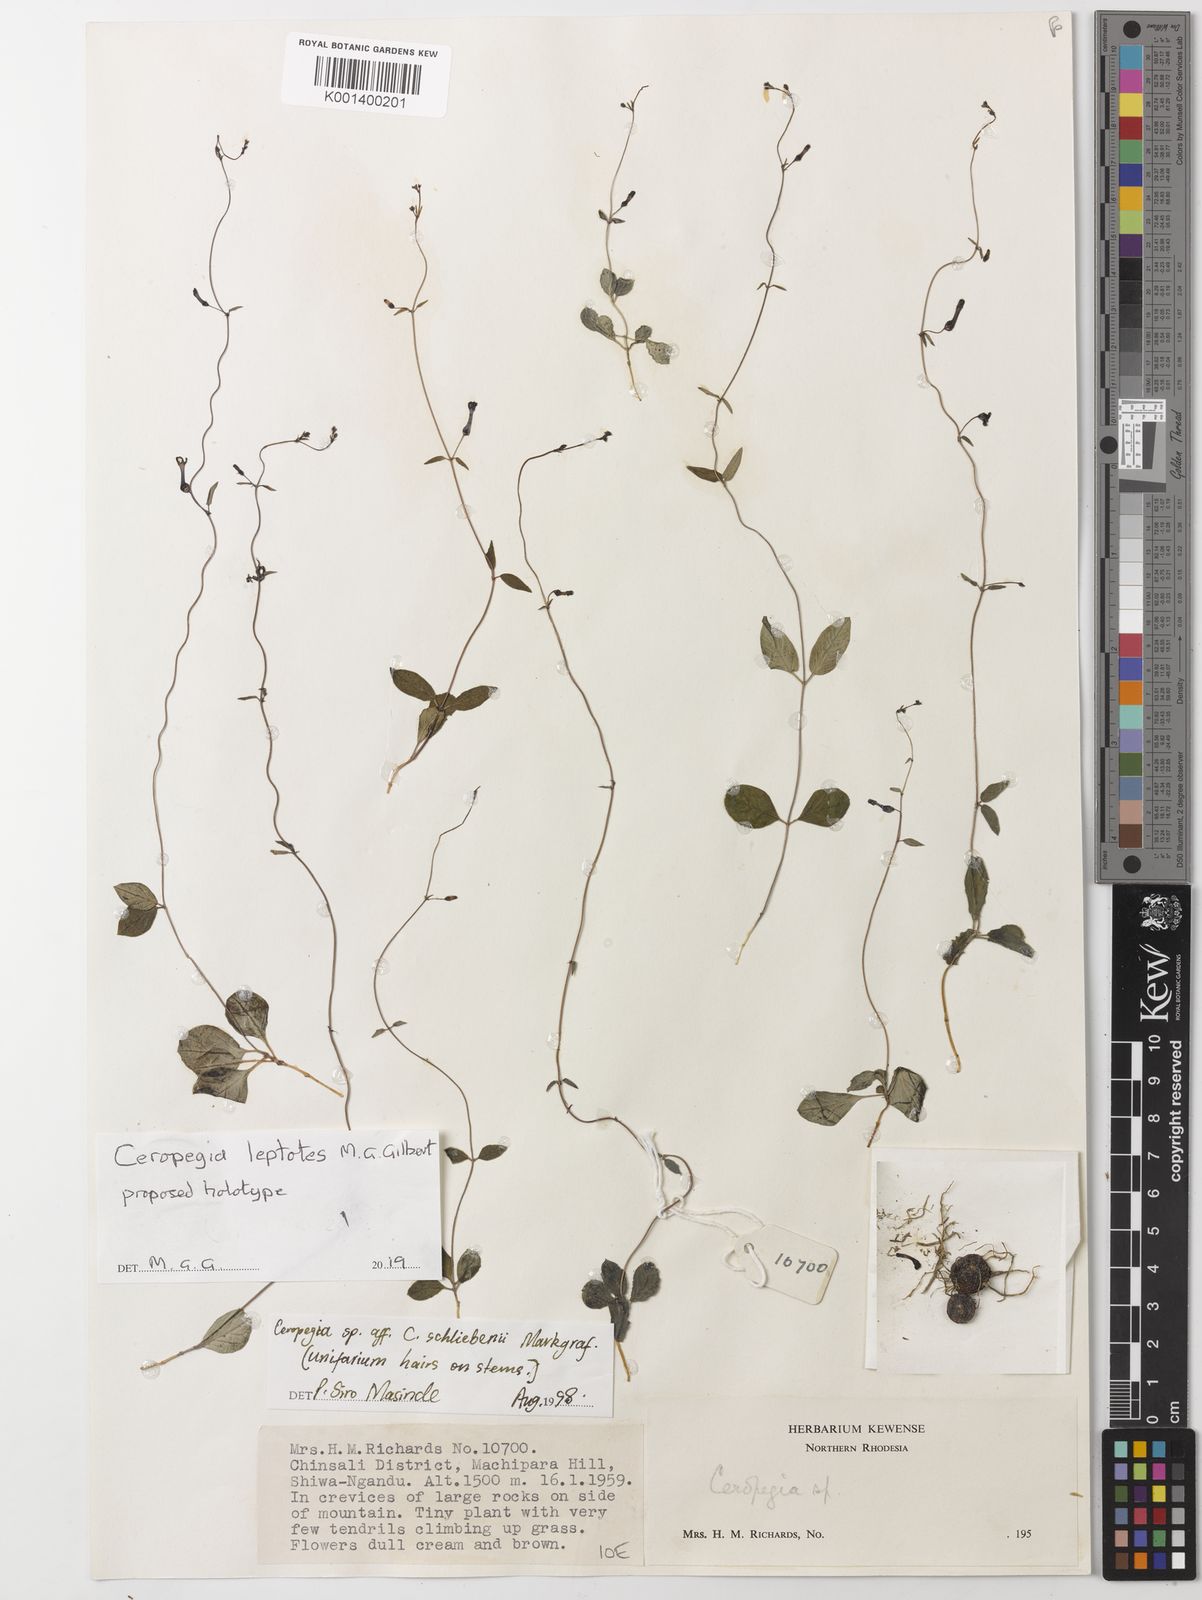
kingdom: Plantae
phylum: Tracheophyta
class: Magnoliopsida
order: Gentianales
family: Apocynaceae
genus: Ceropegia
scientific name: Ceropegia
